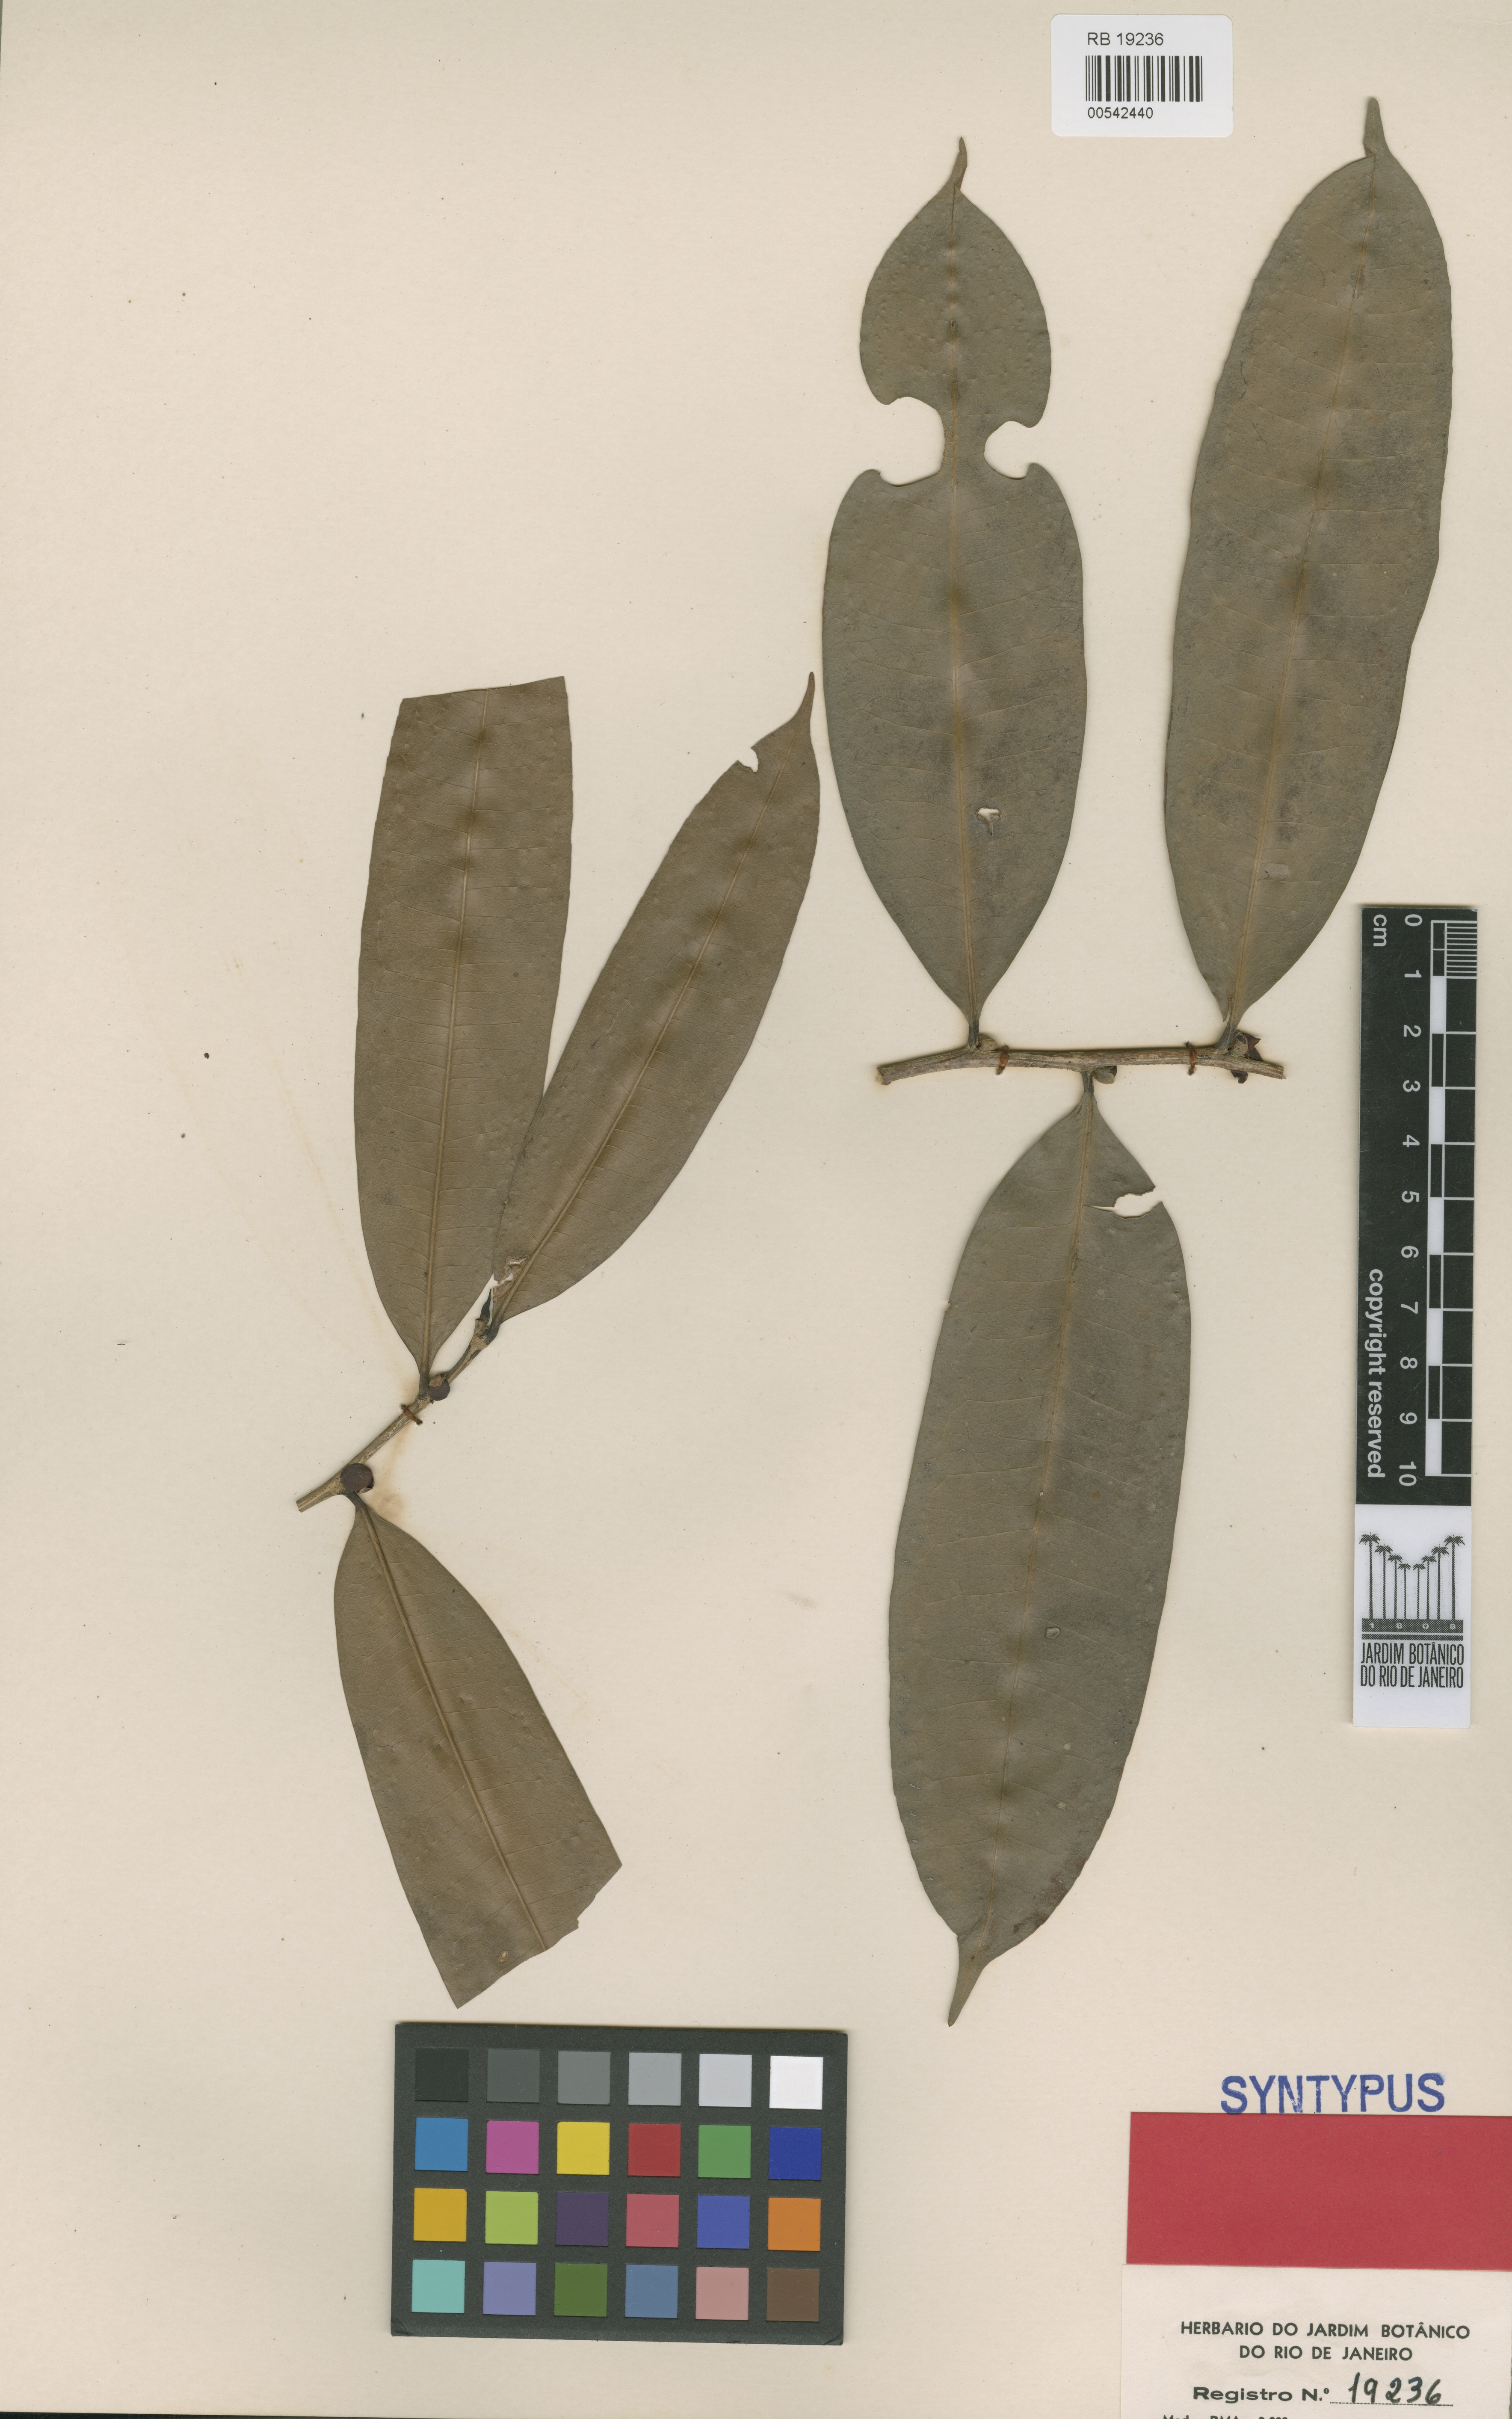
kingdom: Plantae
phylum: Tracheophyta
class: Magnoliopsida
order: Malpighiales
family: Salicaceae
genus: Casearia
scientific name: Casearia apodantha
